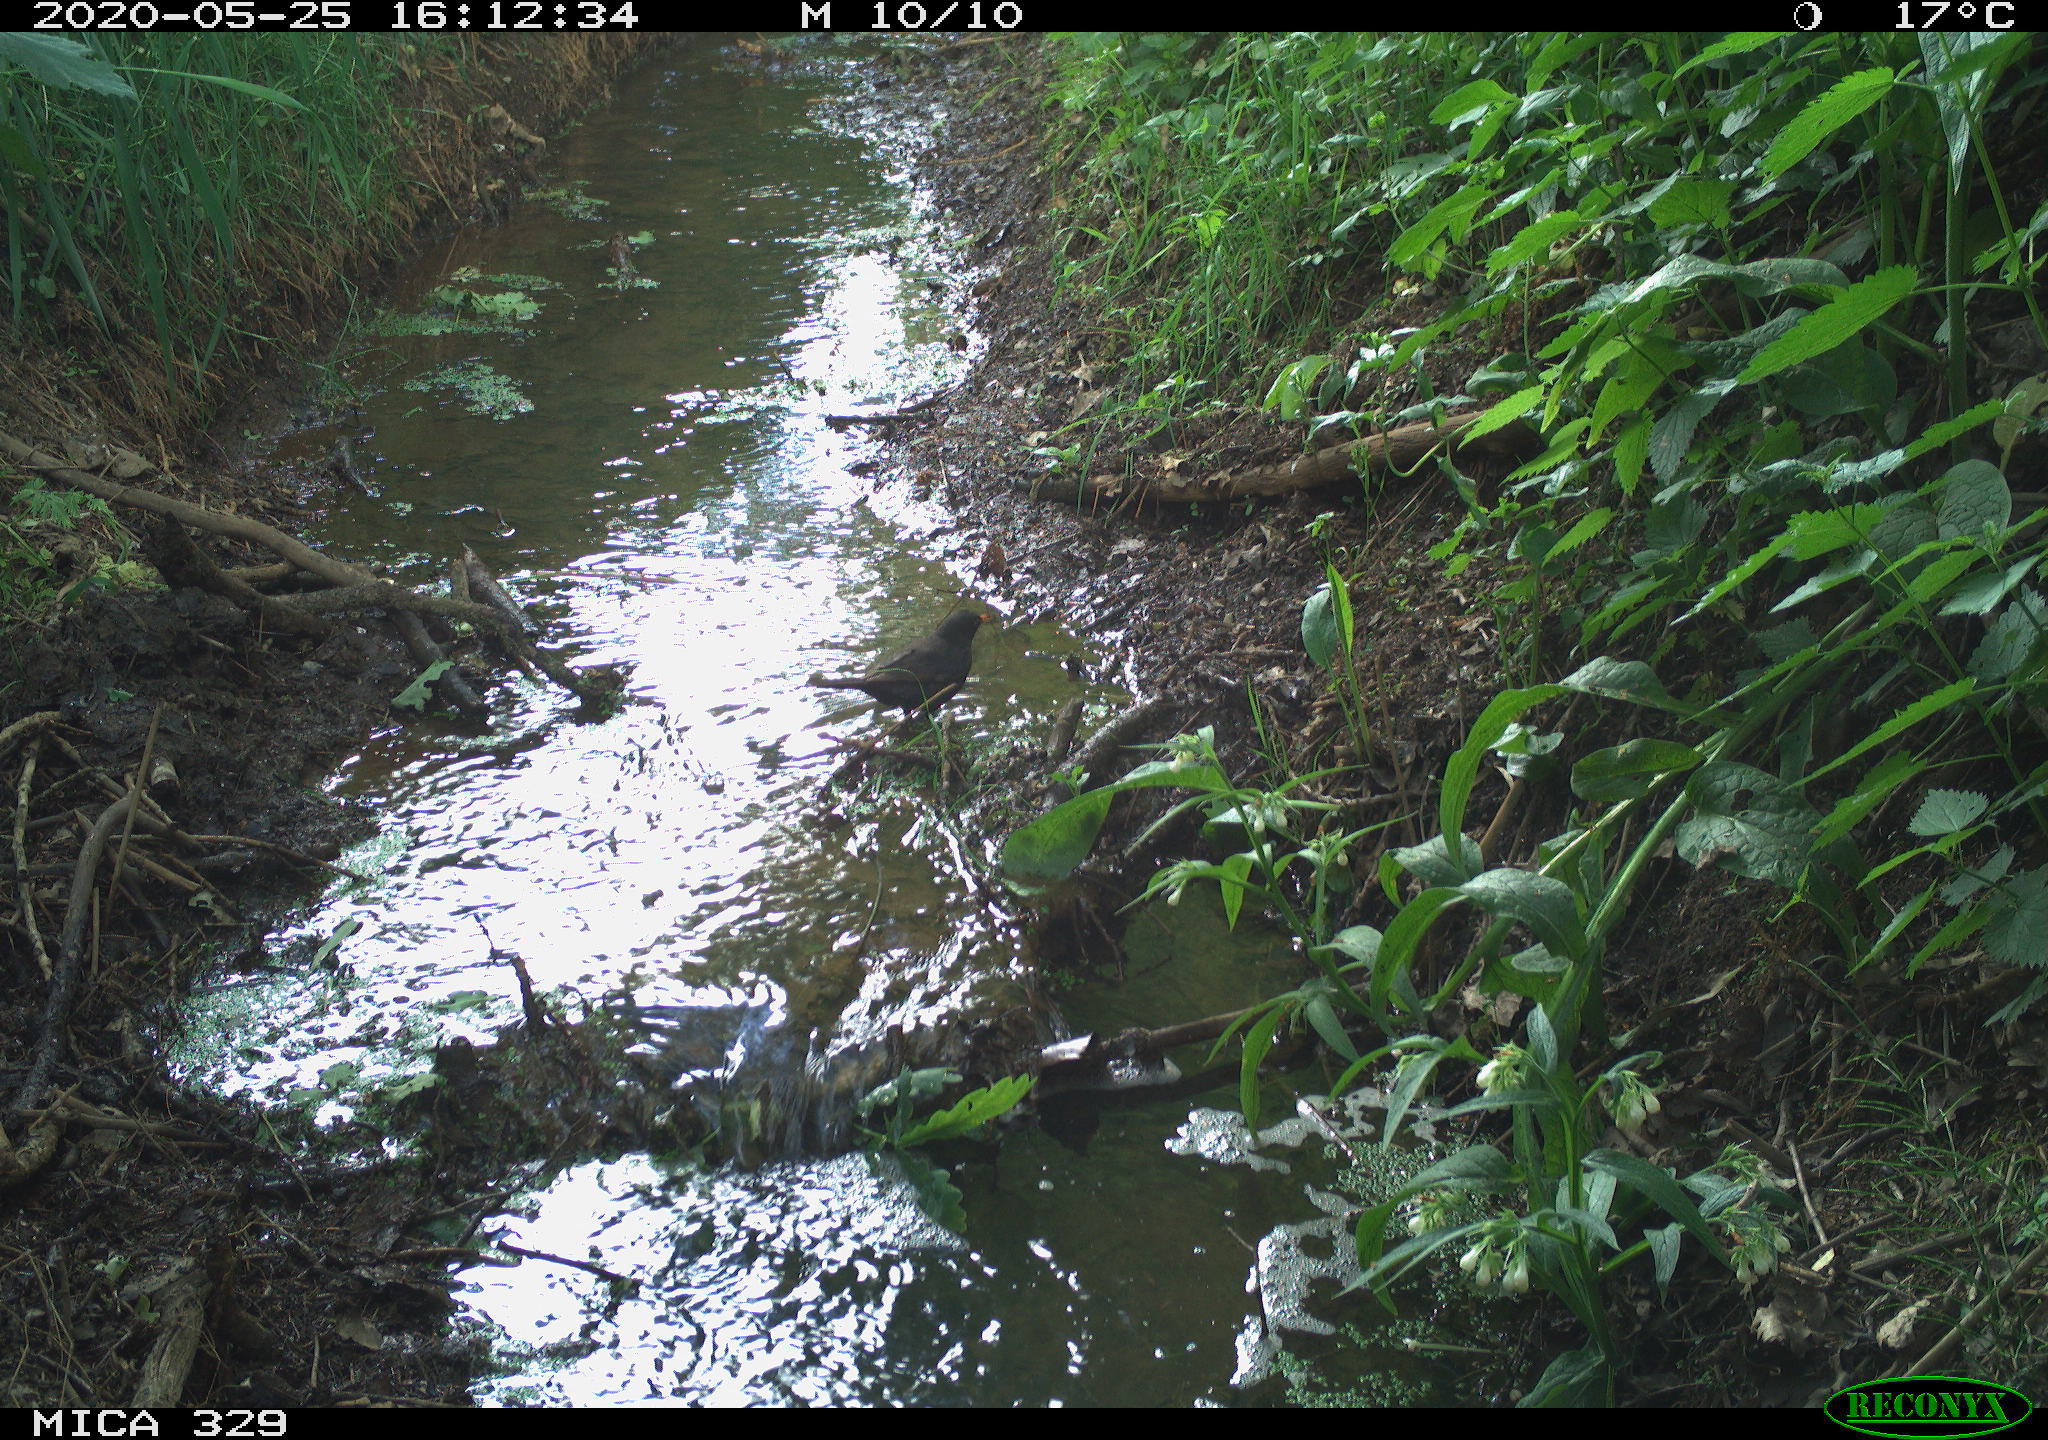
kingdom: Animalia
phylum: Chordata
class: Aves
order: Passeriformes
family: Turdidae
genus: Turdus
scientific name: Turdus merula
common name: Common blackbird
